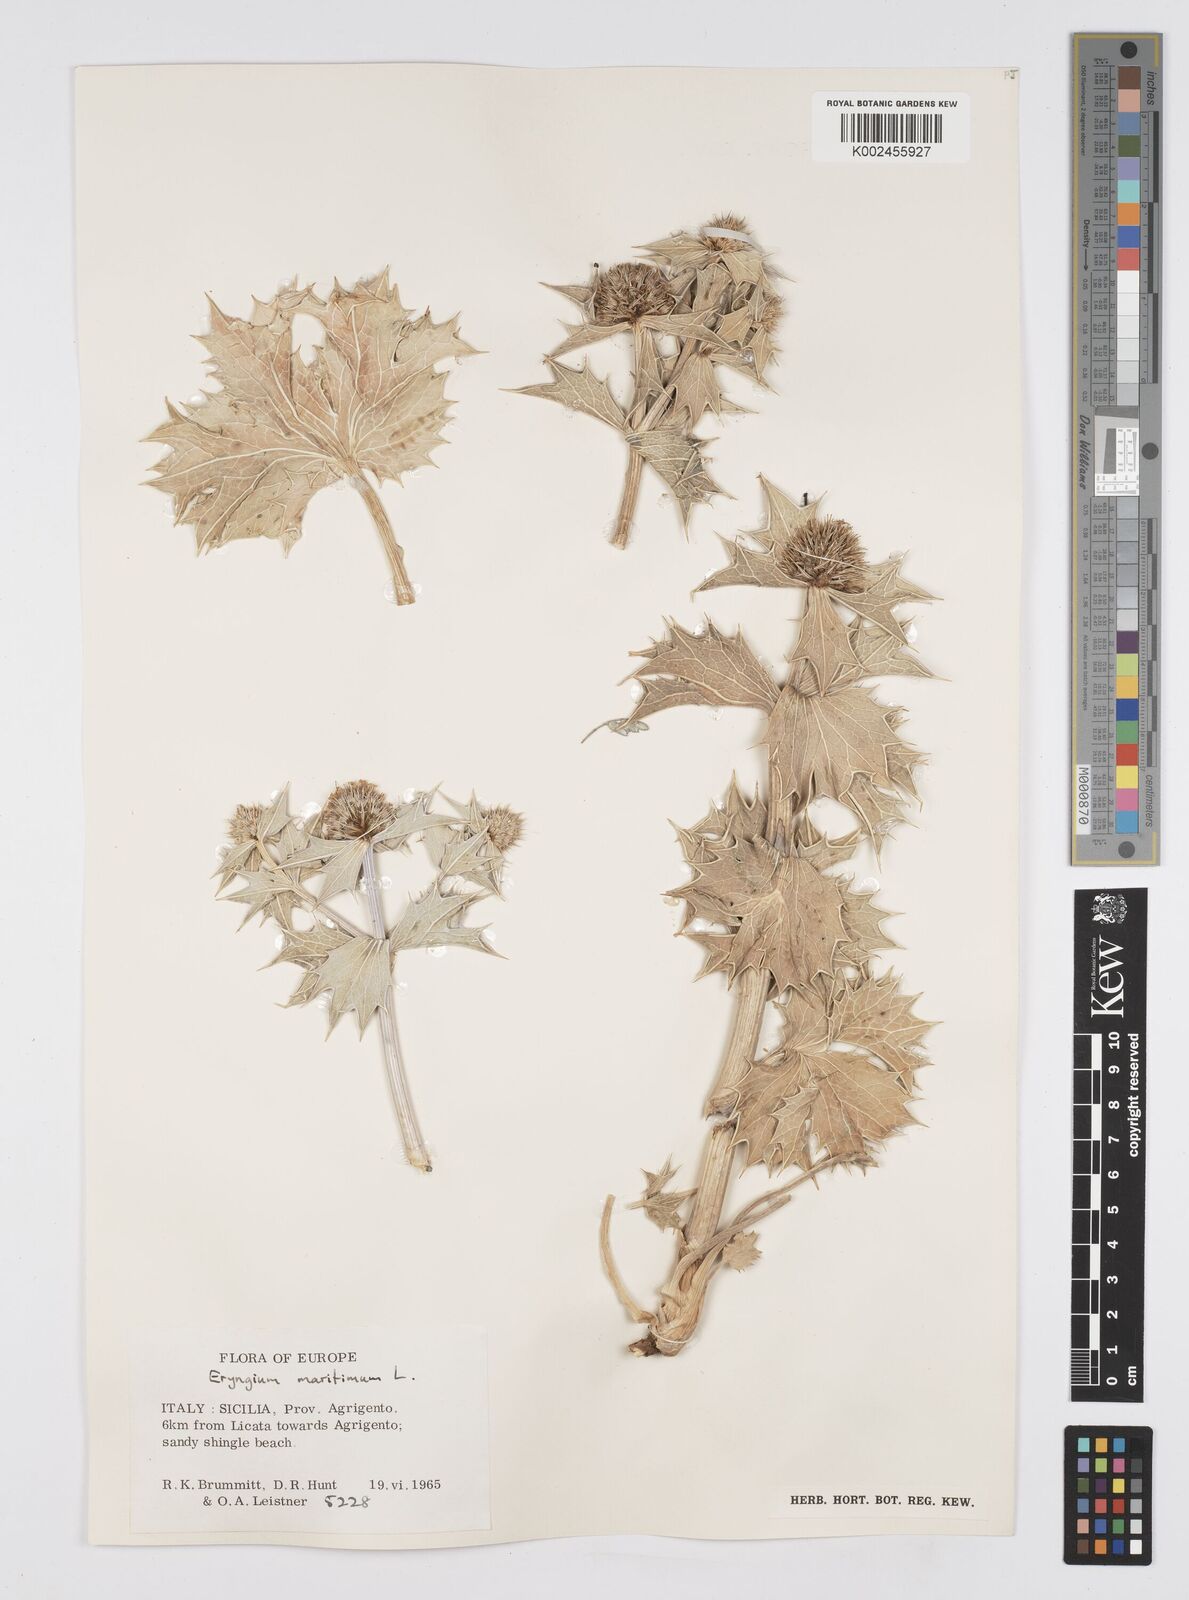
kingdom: Plantae
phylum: Tracheophyta
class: Magnoliopsida
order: Apiales
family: Apiaceae
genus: Eryngium
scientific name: Eryngium maritimum
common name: Sea-holly
